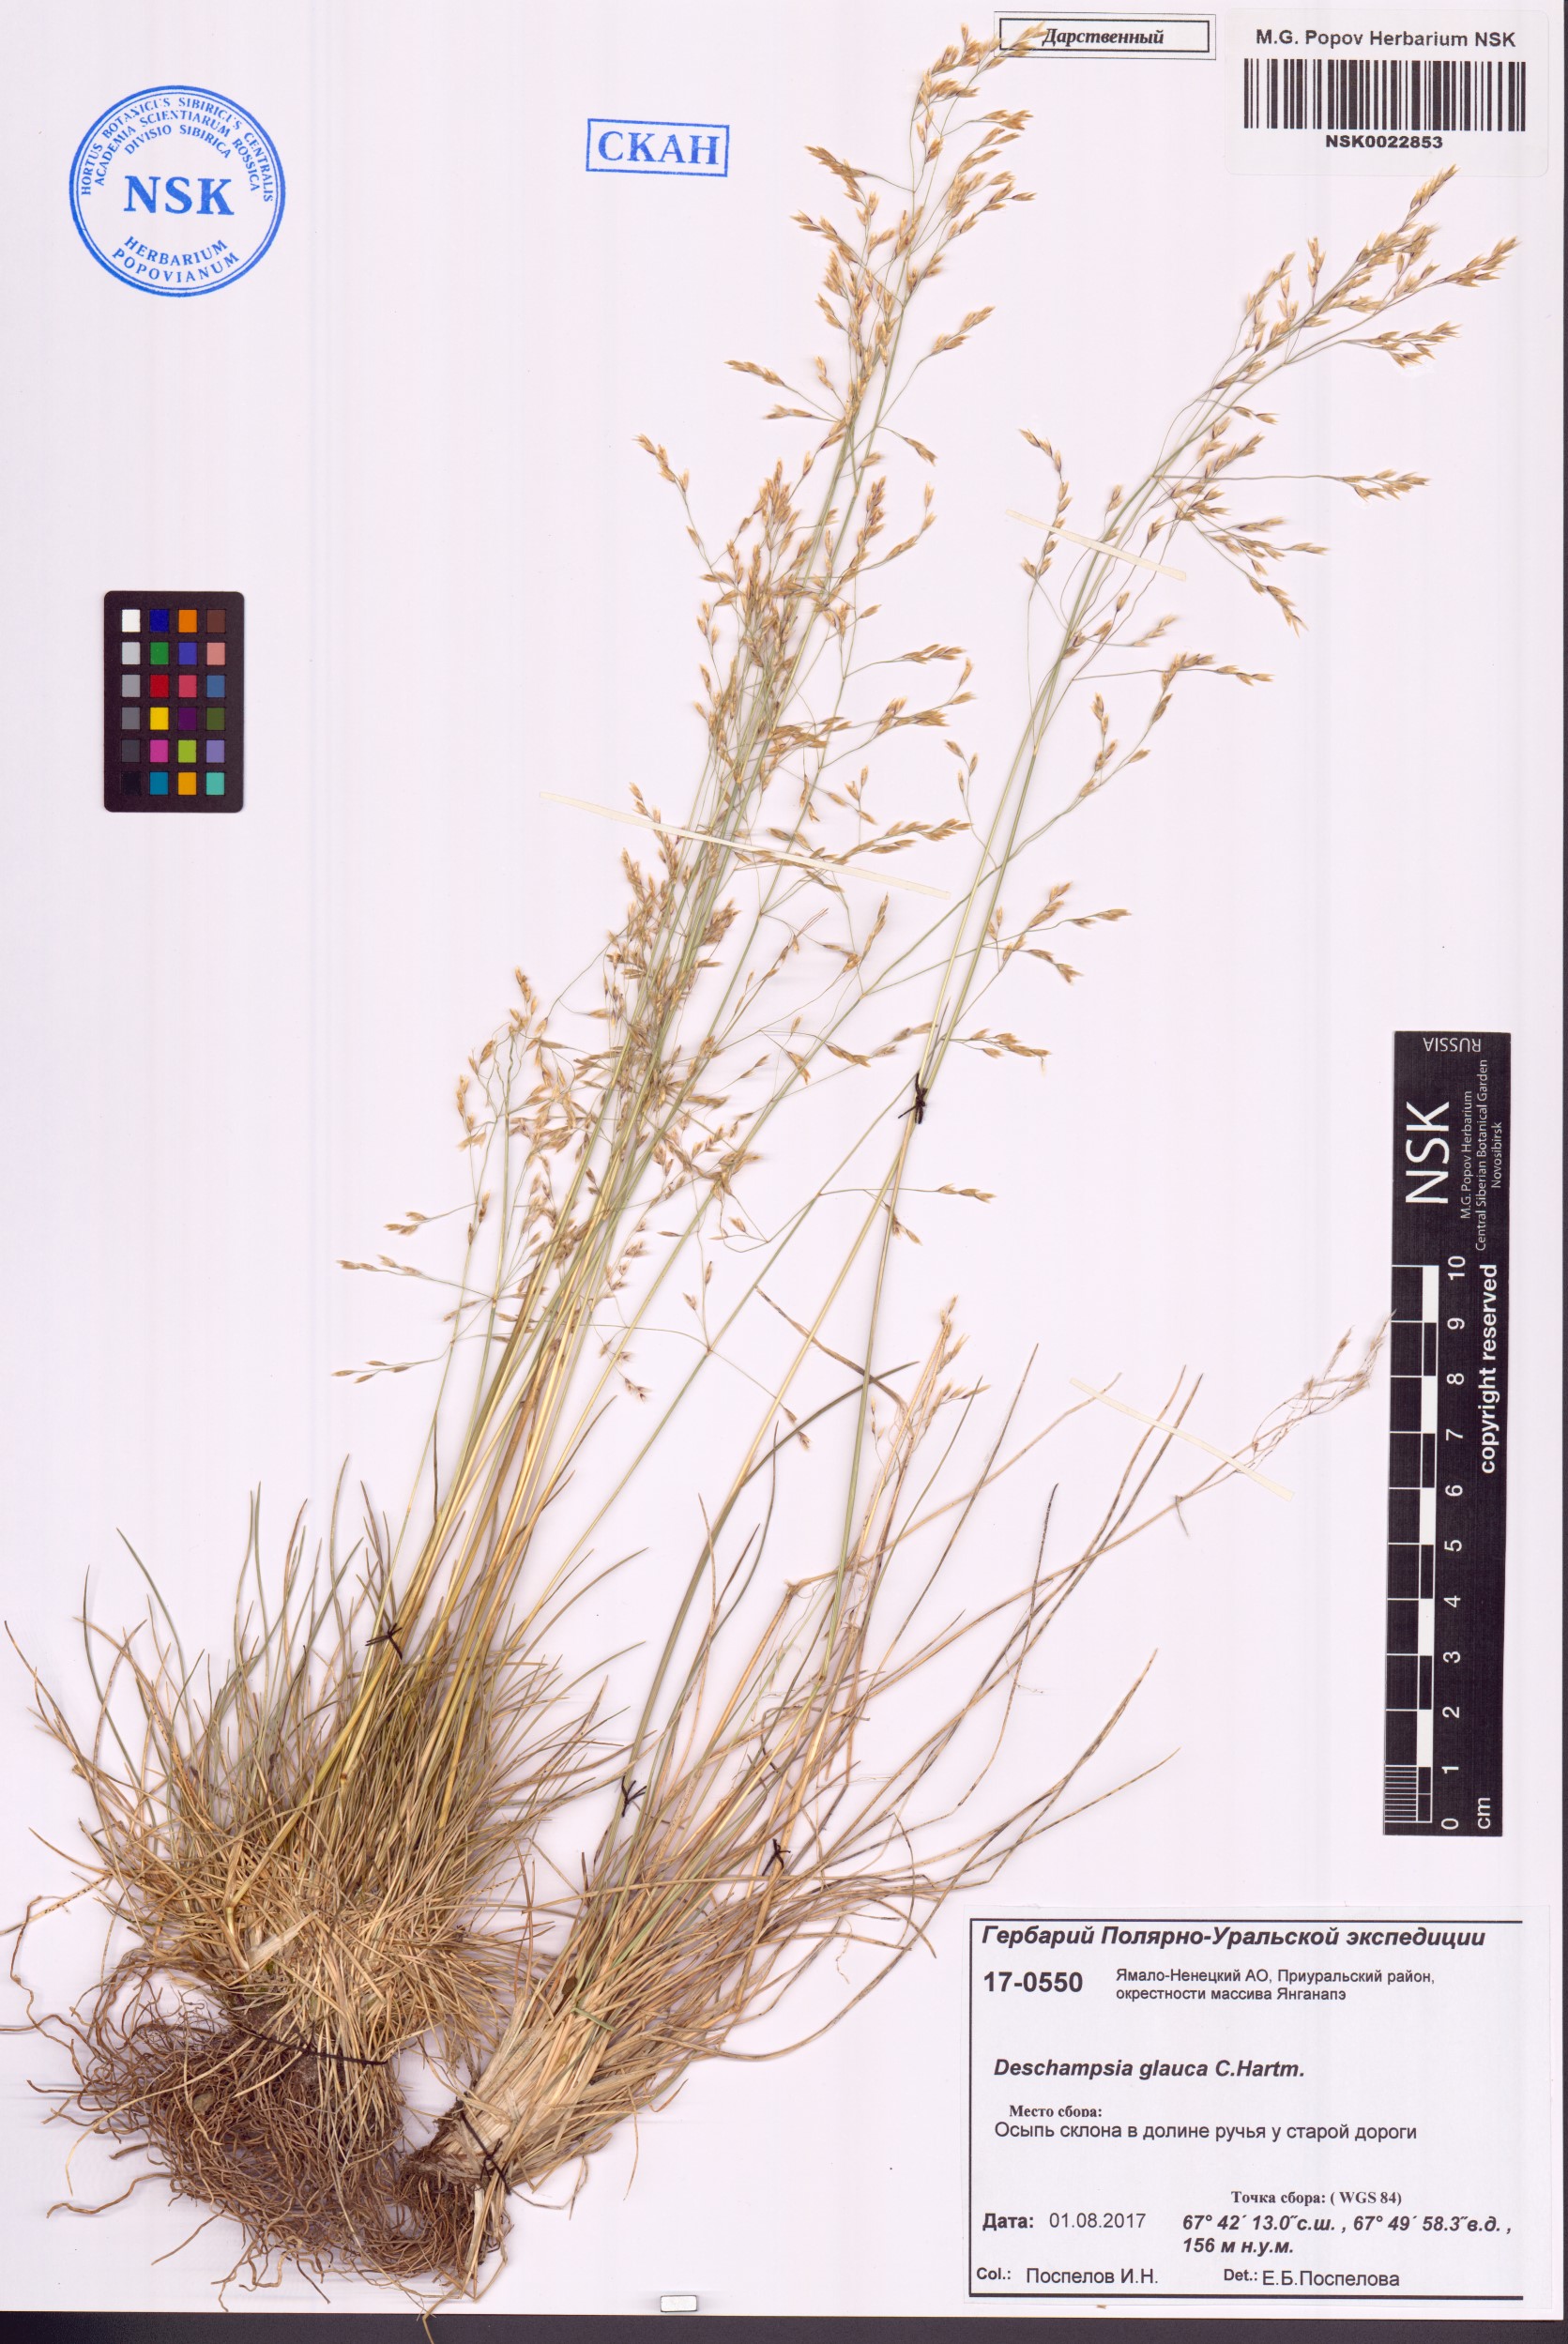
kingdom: Plantae
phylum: Tracheophyta
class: Liliopsida
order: Poales
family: Poaceae
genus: Deschampsia
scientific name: Deschampsia cespitosa
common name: Tufted hair-grass
